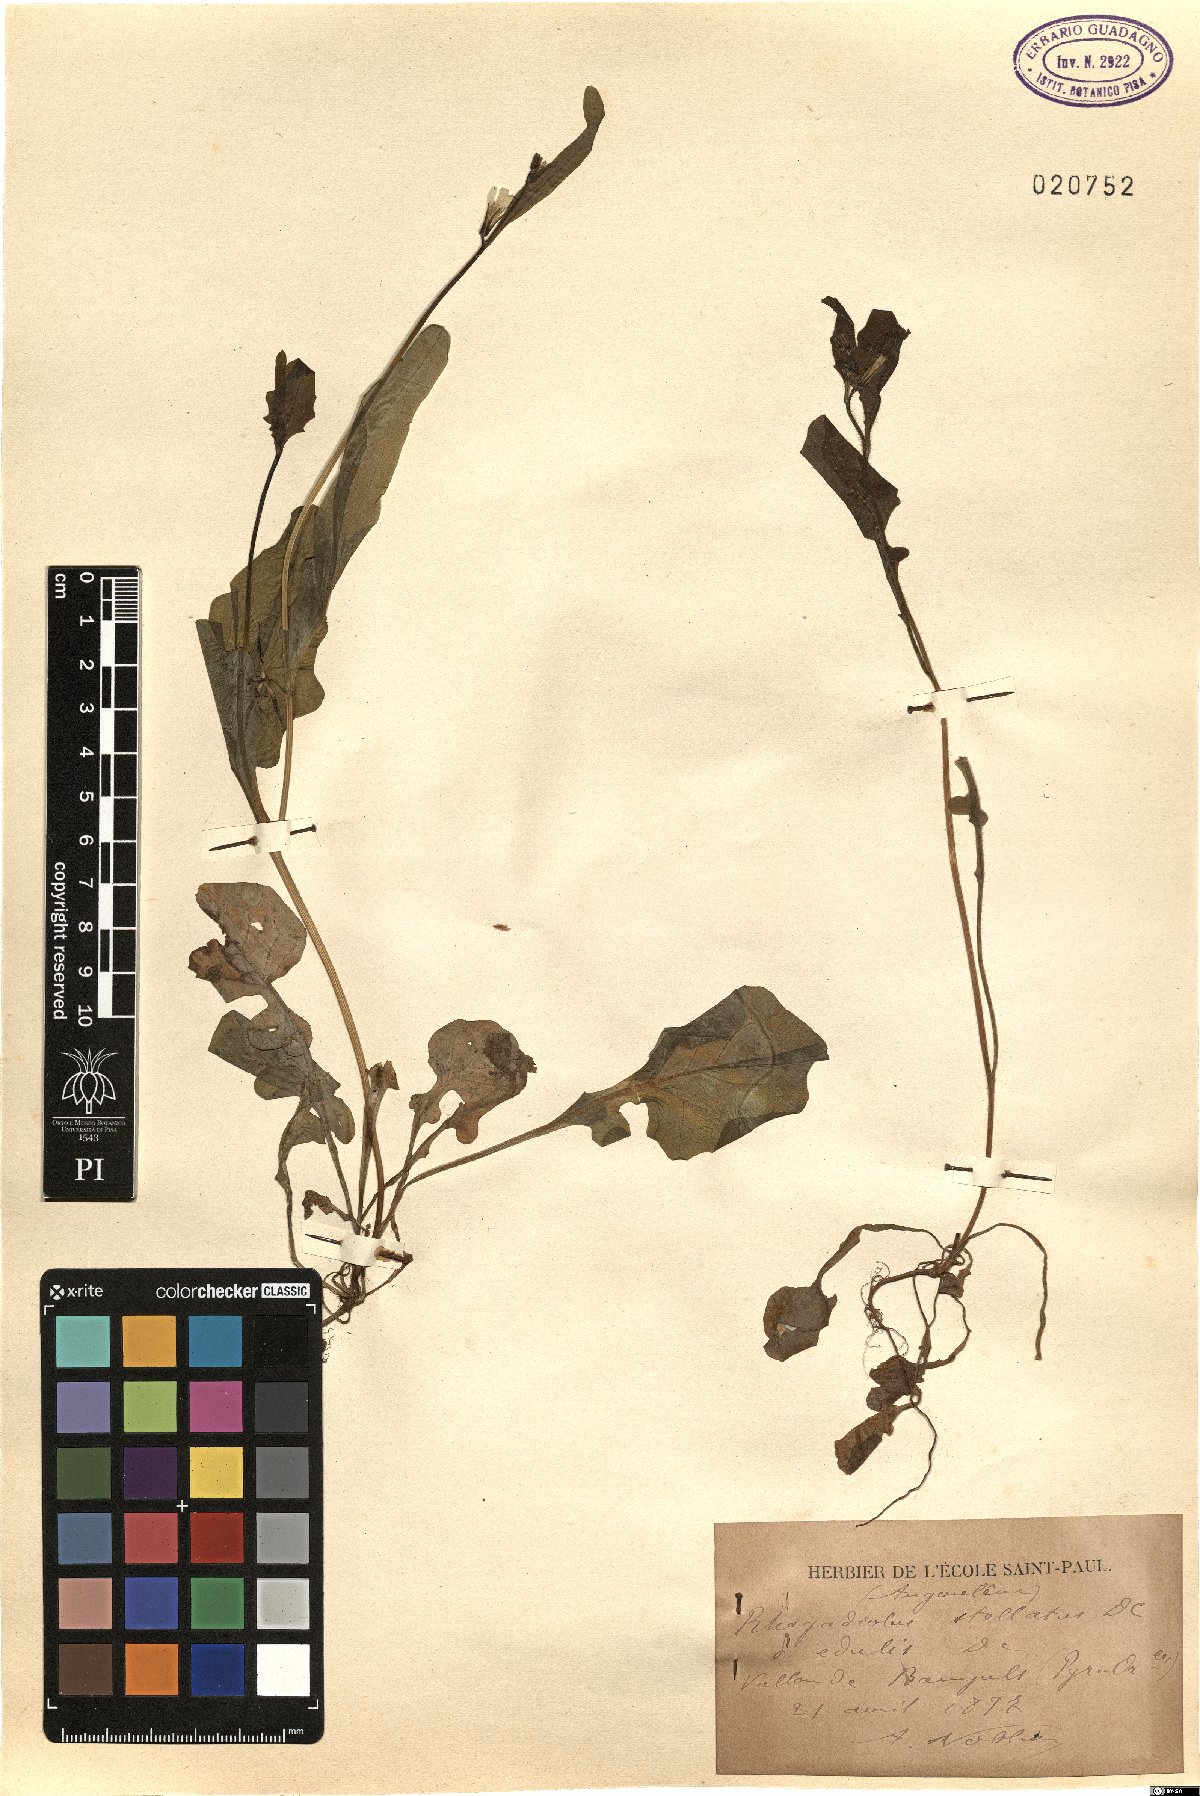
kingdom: Plantae
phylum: Tracheophyta
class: Magnoliopsida
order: Asterales
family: Asteraceae
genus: Rhagadiolus
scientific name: Rhagadiolus edulis
